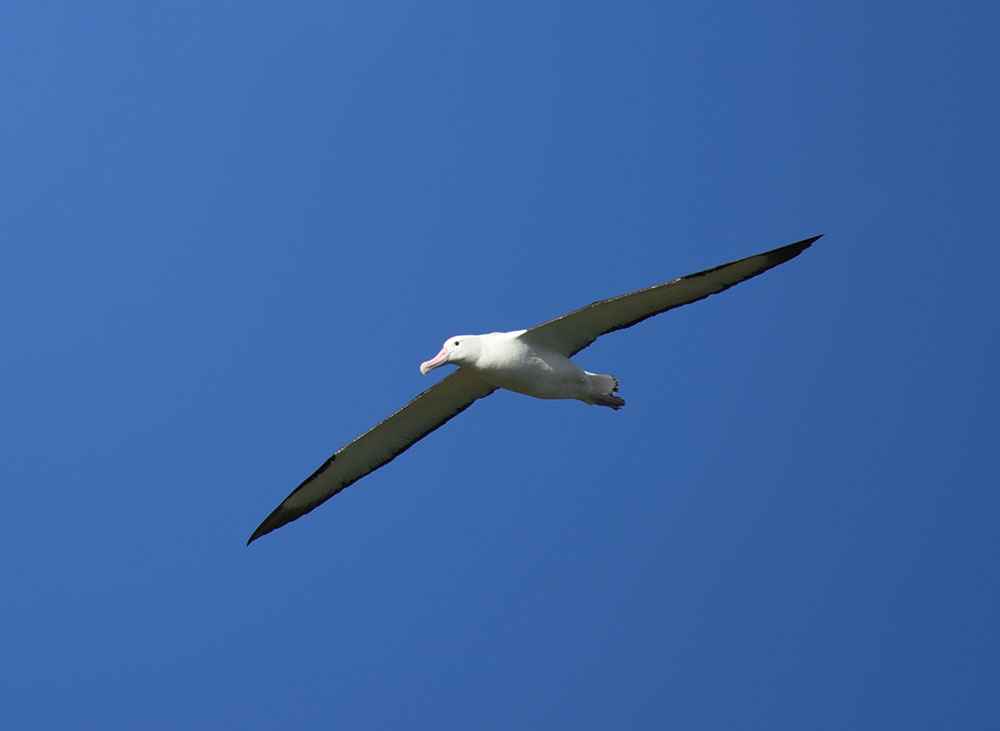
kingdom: Animalia
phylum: Chordata
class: Aves
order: Procellariiformes
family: Diomedeidae
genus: Diomedea
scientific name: Diomedea sanfordi
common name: Northern royal albatross
